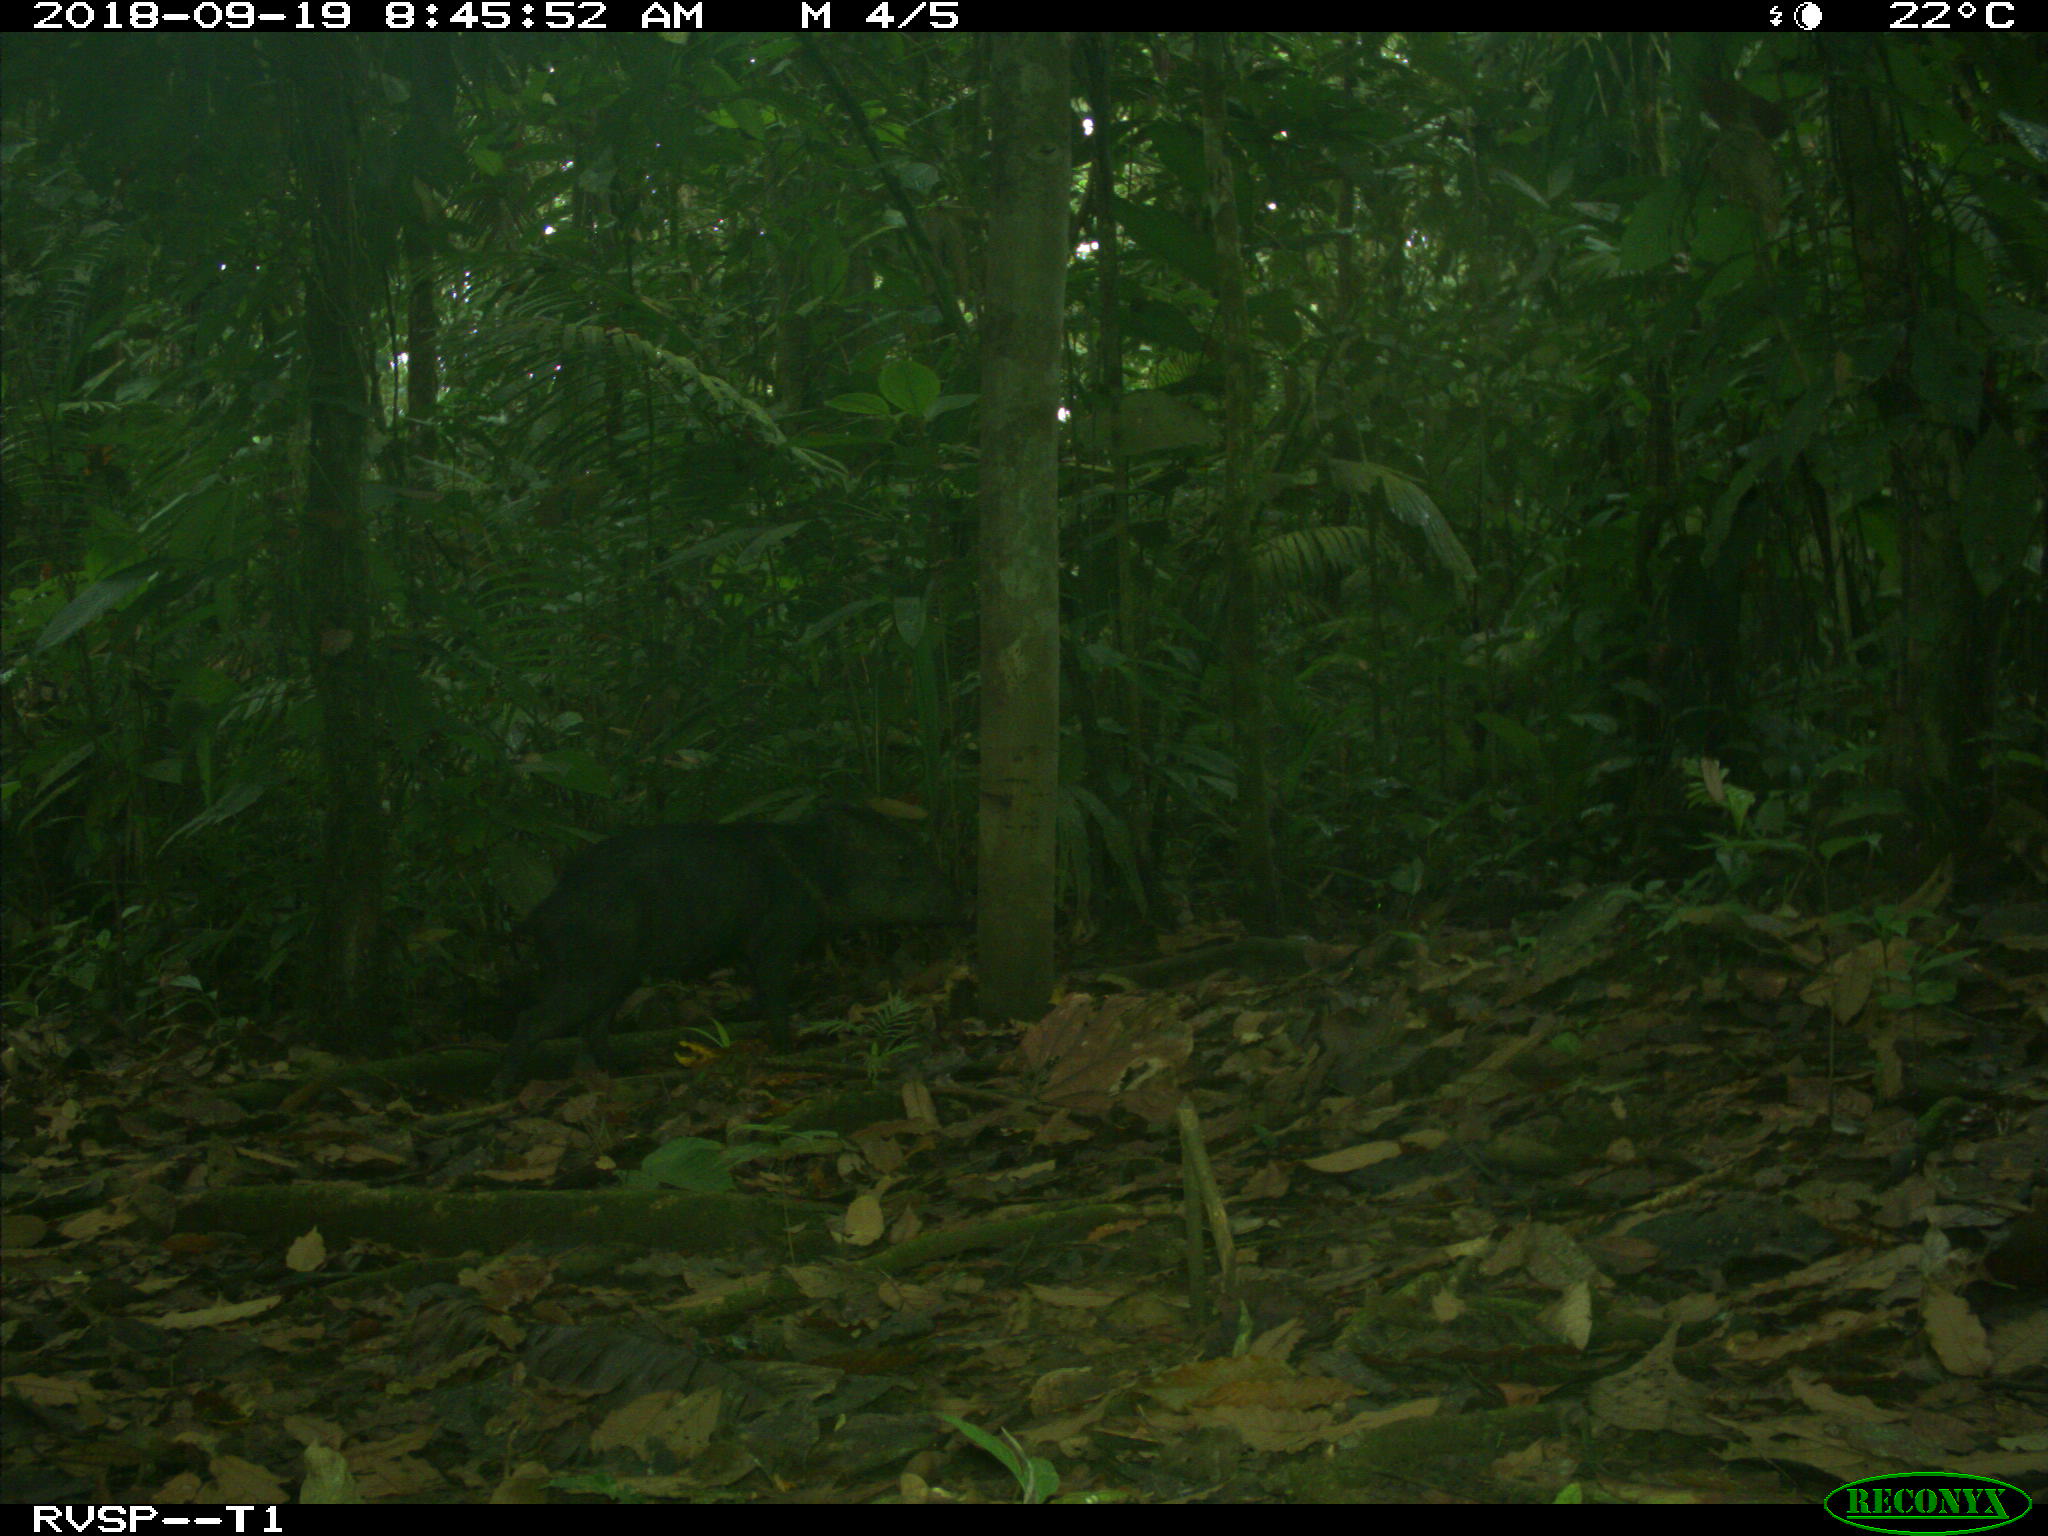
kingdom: Animalia
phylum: Chordata
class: Mammalia
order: Artiodactyla
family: Tayassuidae
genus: Pecari
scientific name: Pecari tajacu
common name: Collared peccary
